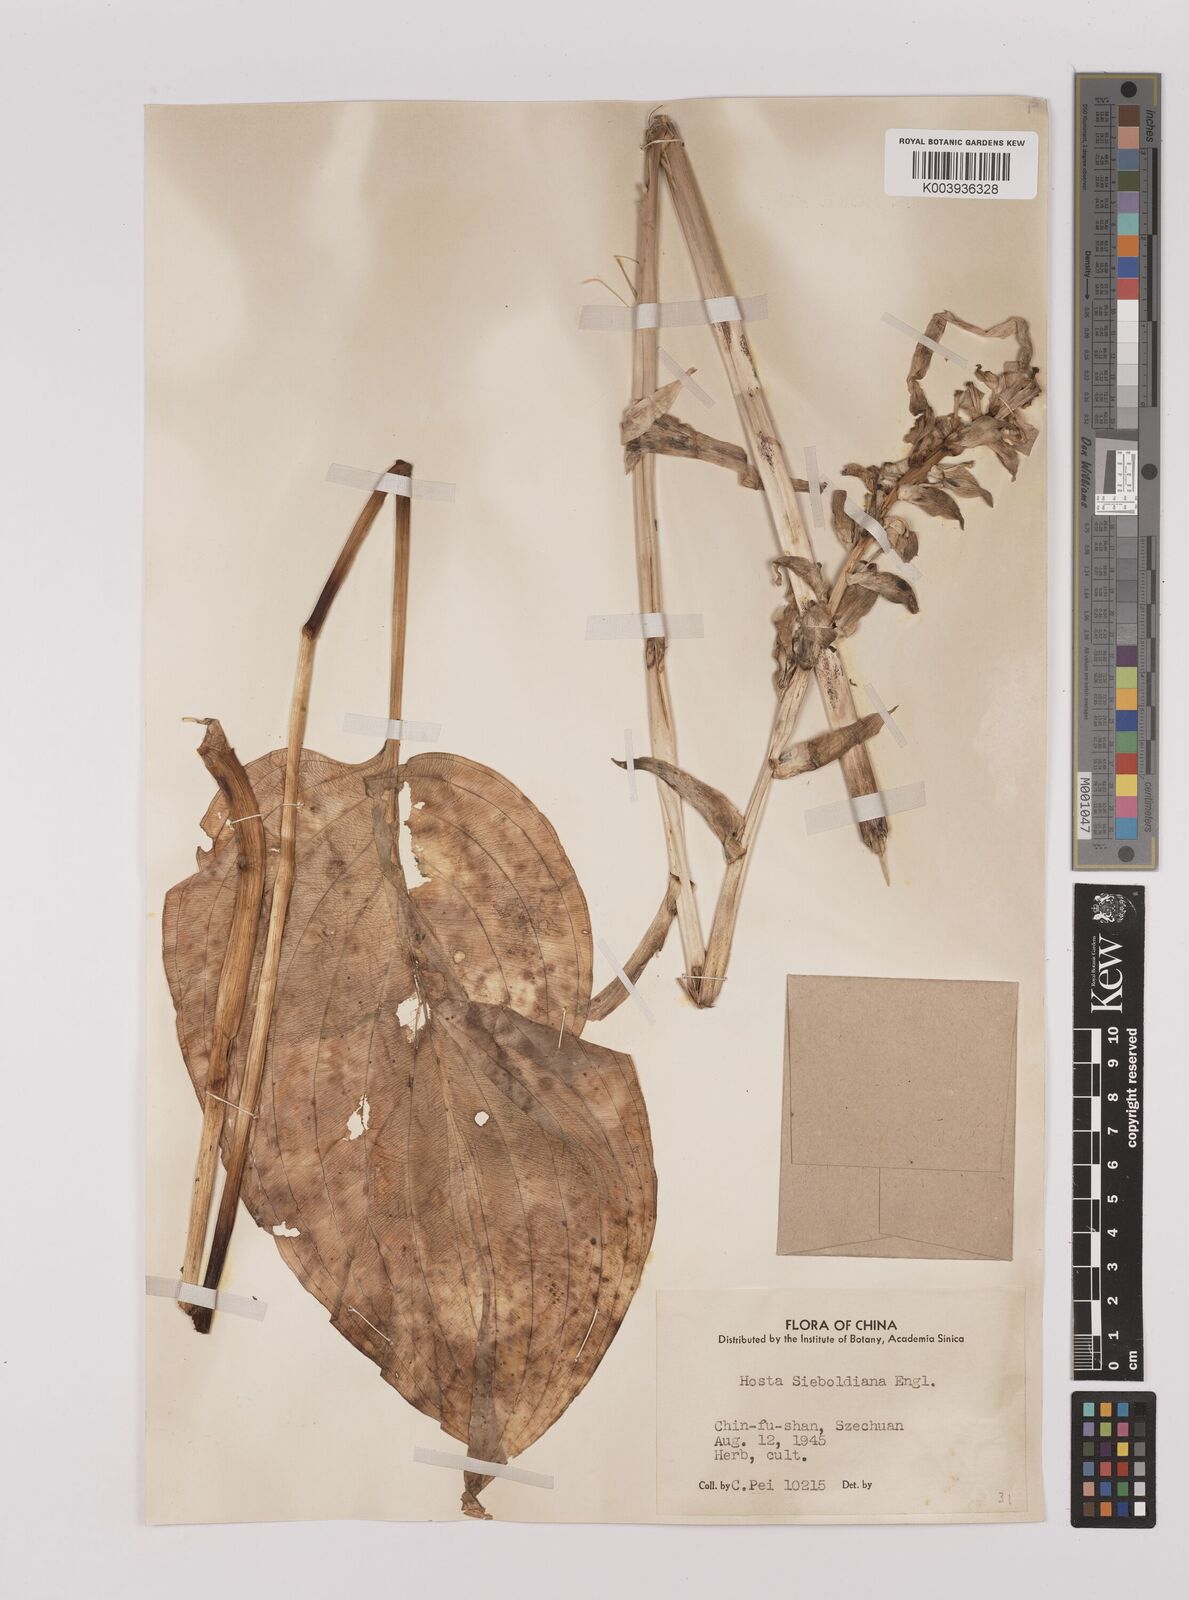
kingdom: Plantae
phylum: Tracheophyta
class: Liliopsida
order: Asparagales
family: Asparagaceae
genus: Hosta
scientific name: Hosta ventricosa
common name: Blue plantain-lily
